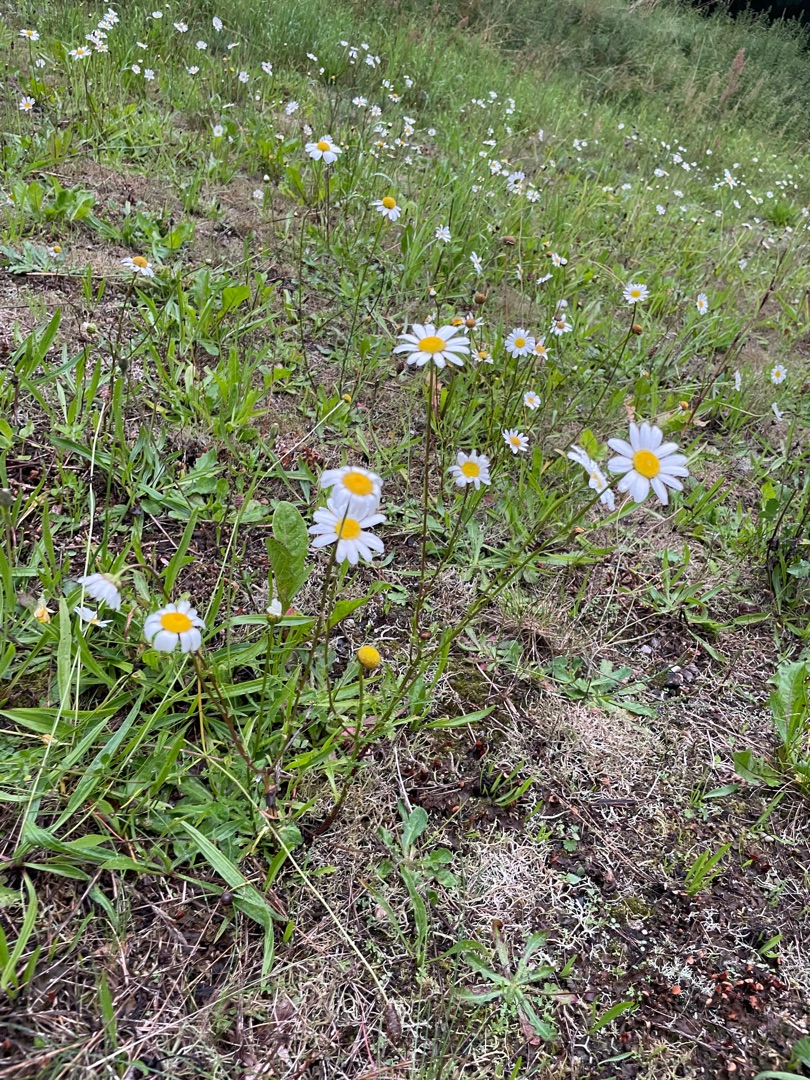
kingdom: Plantae
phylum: Tracheophyta
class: Magnoliopsida
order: Asterales
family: Asteraceae
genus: Leucanthemum
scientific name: Leucanthemum vulgare
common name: Hvid okseøje
